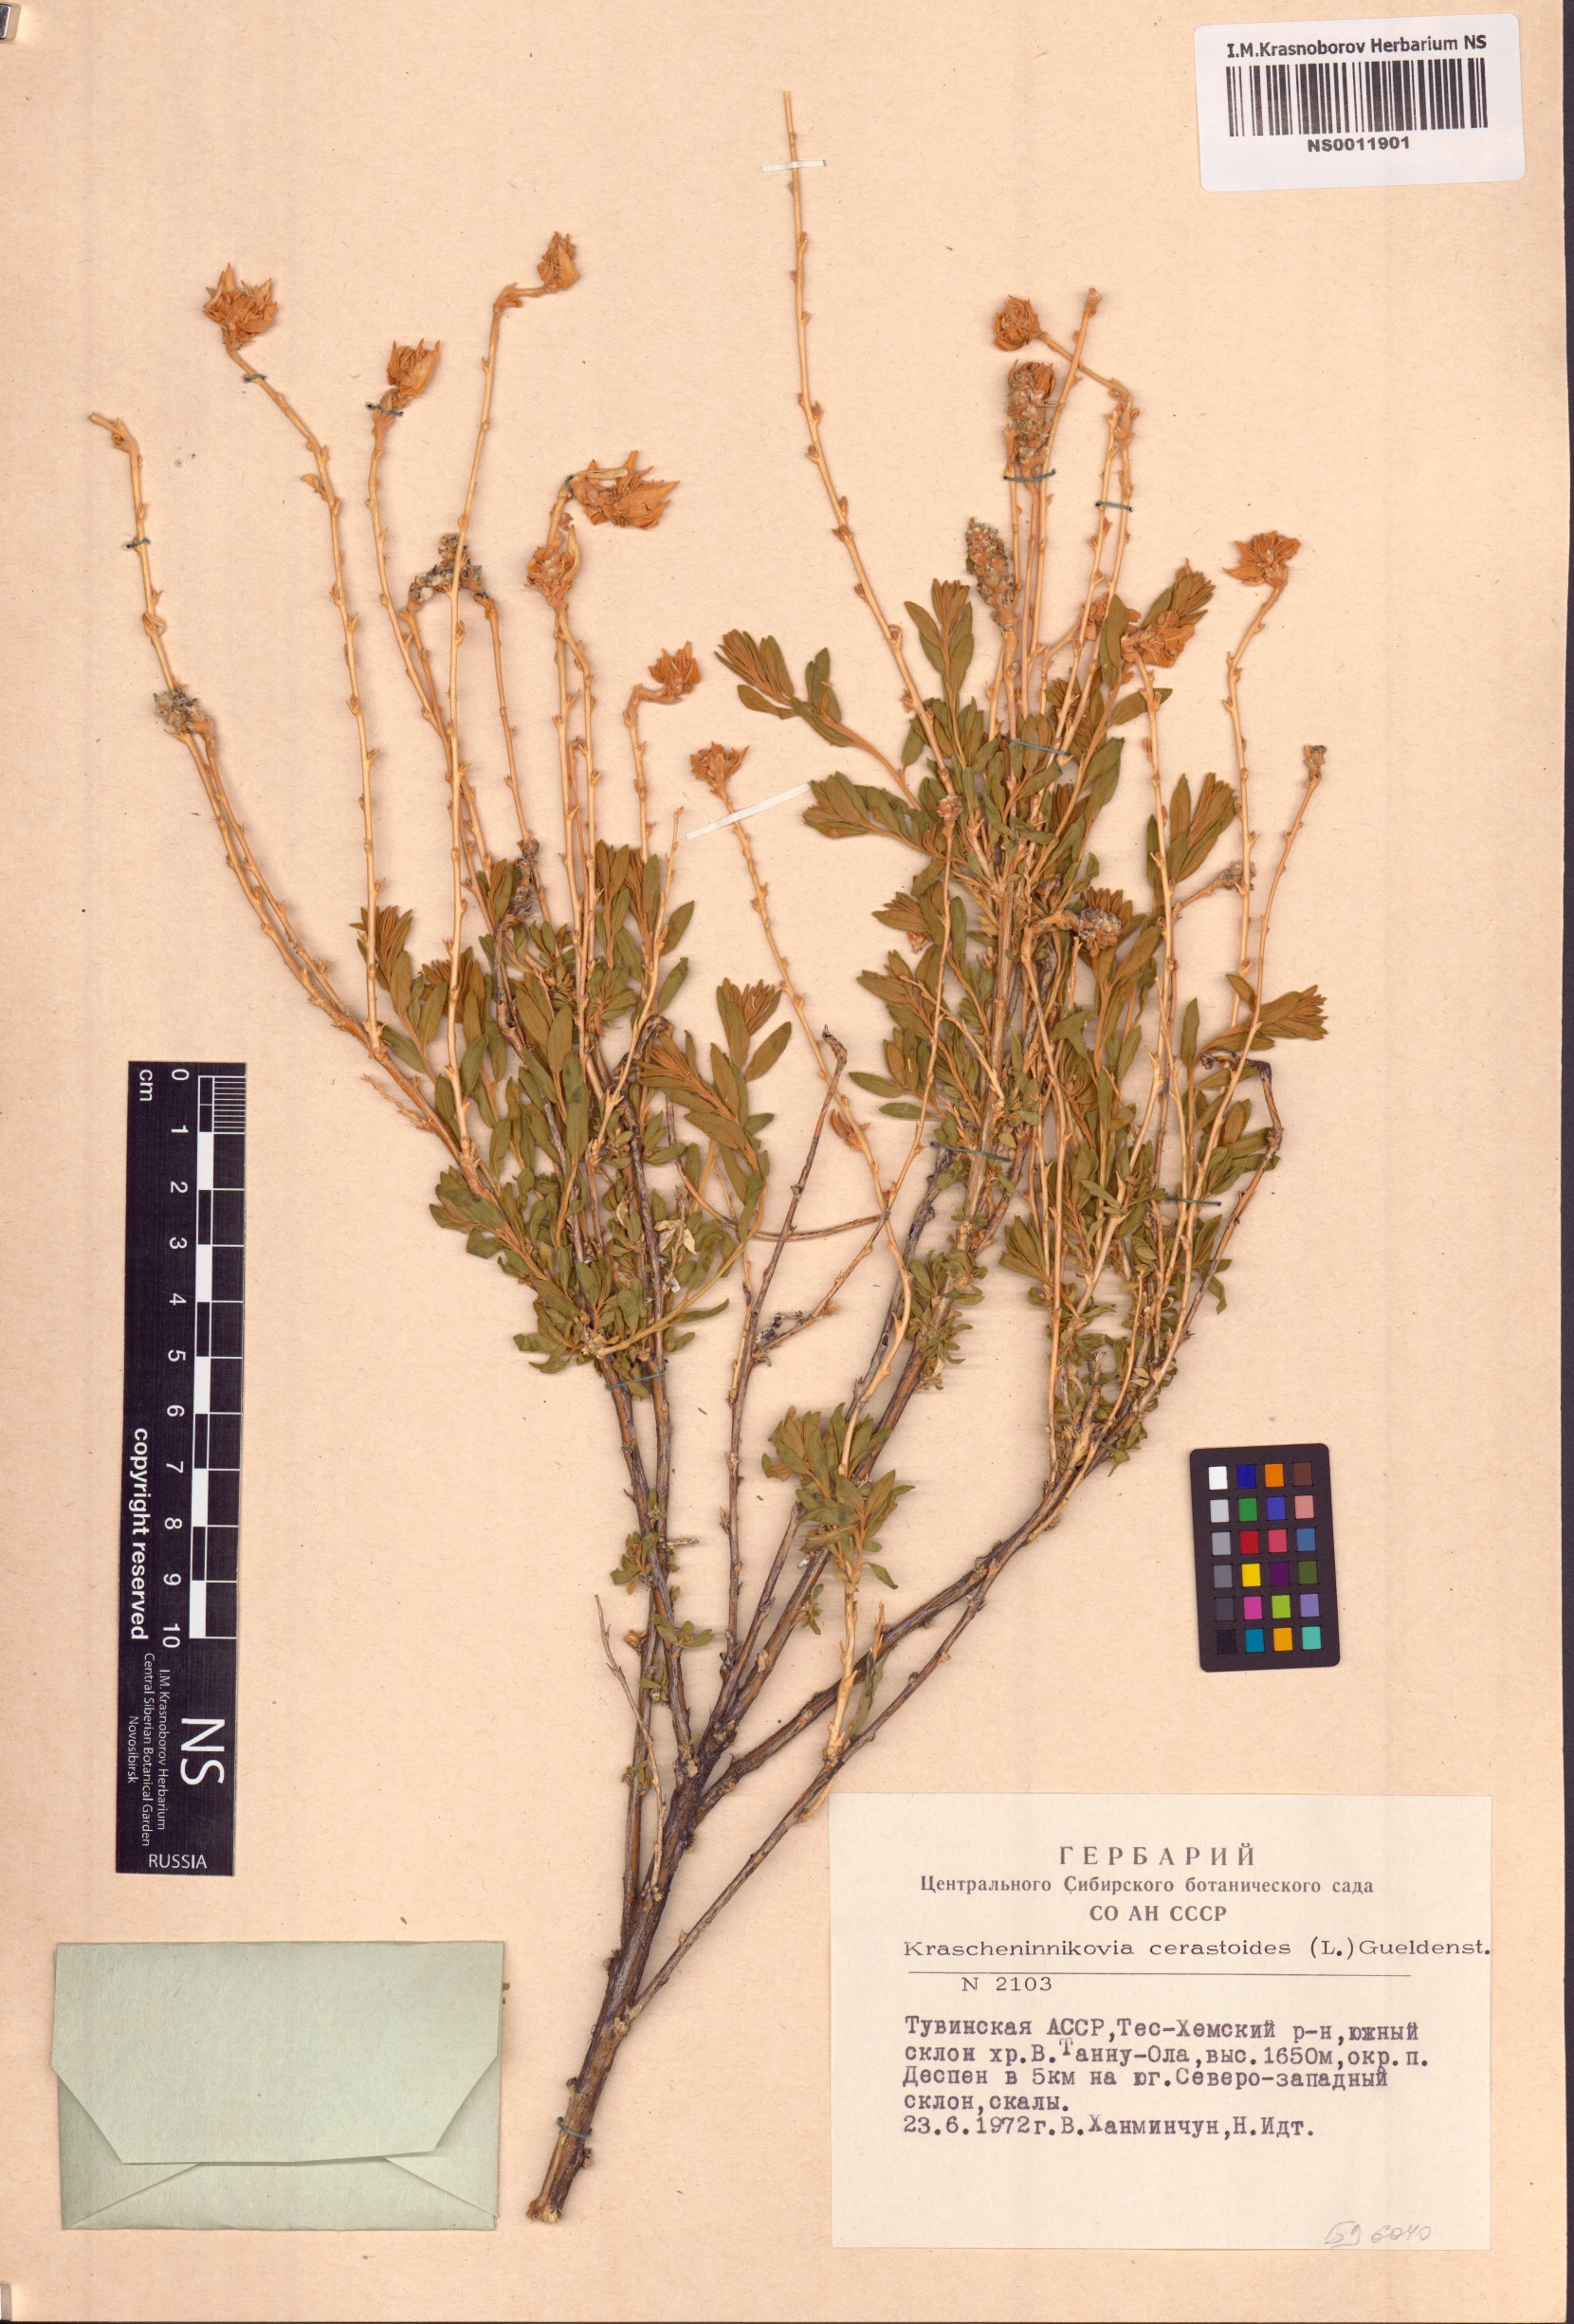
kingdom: Plantae
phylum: Tracheophyta
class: Magnoliopsida
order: Caryophyllales
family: Amaranthaceae
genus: Krascheninnikovia
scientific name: Krascheninnikovia ceratoides
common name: Pamirian winterfat
